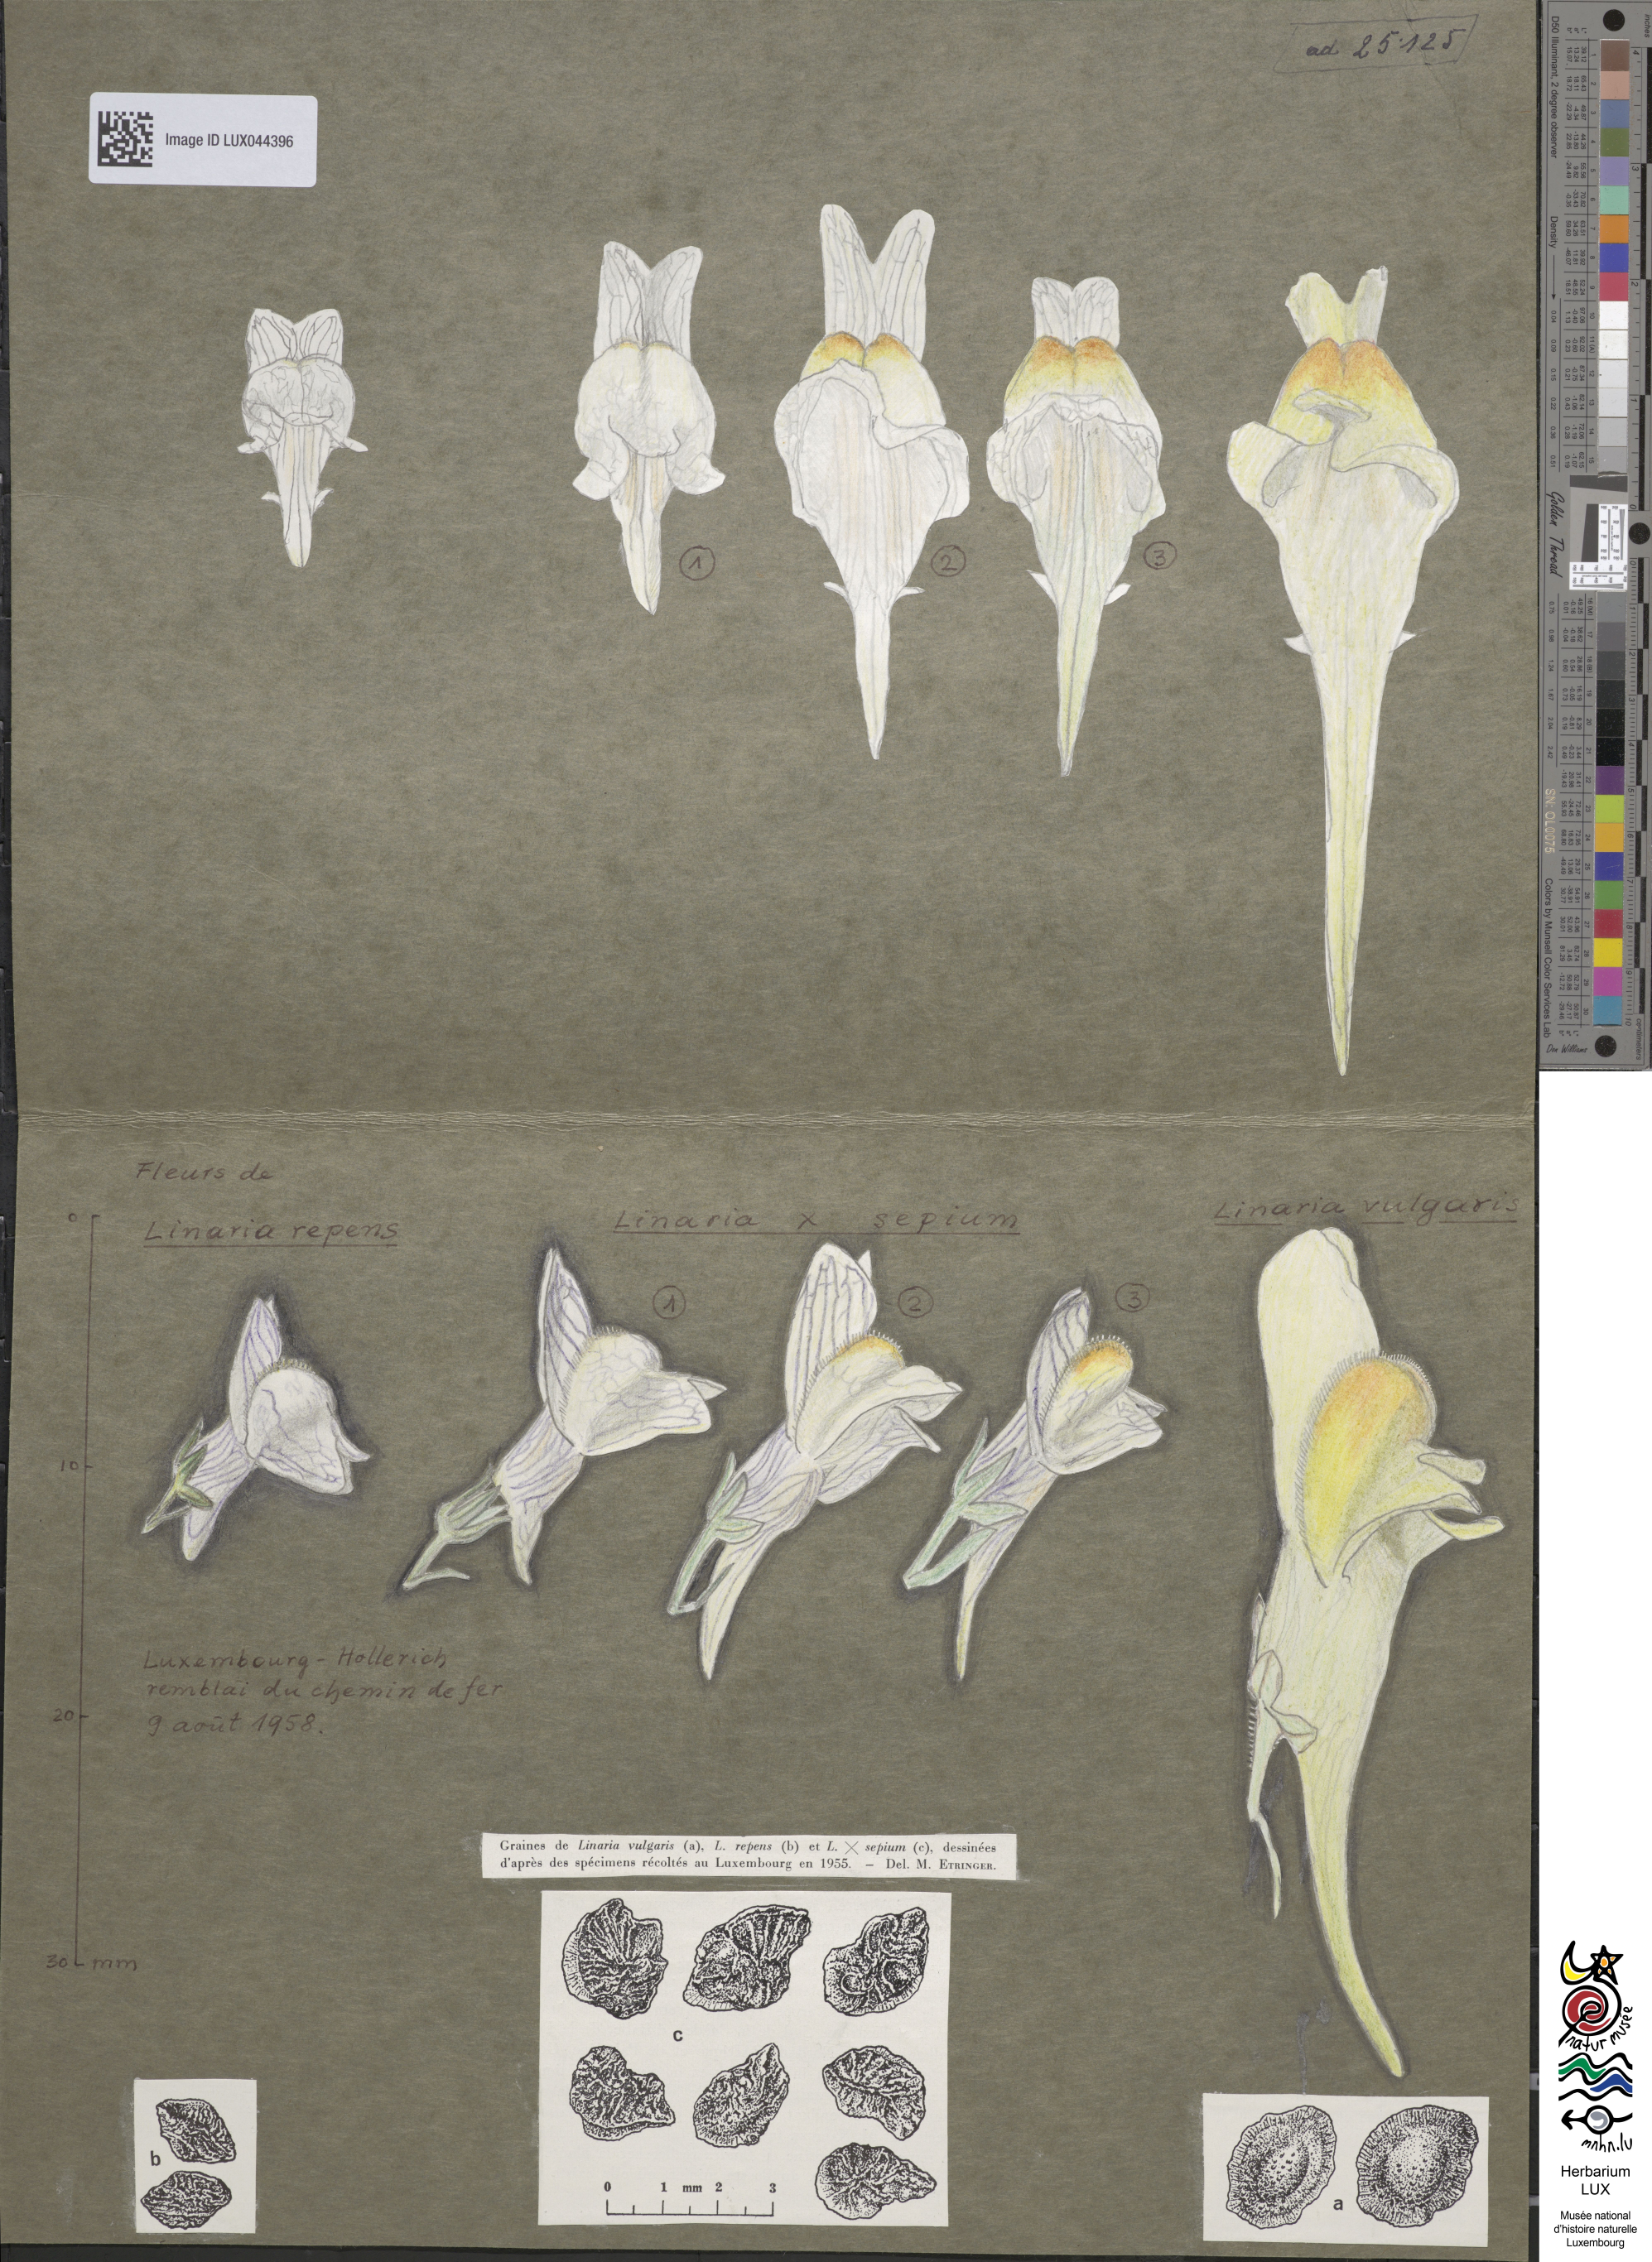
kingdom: Plantae
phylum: Tracheophyta
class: Magnoliopsida
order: Lamiales
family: Plantaginaceae
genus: Linaria
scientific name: Linaria sepium
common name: Hybrid toadflax
